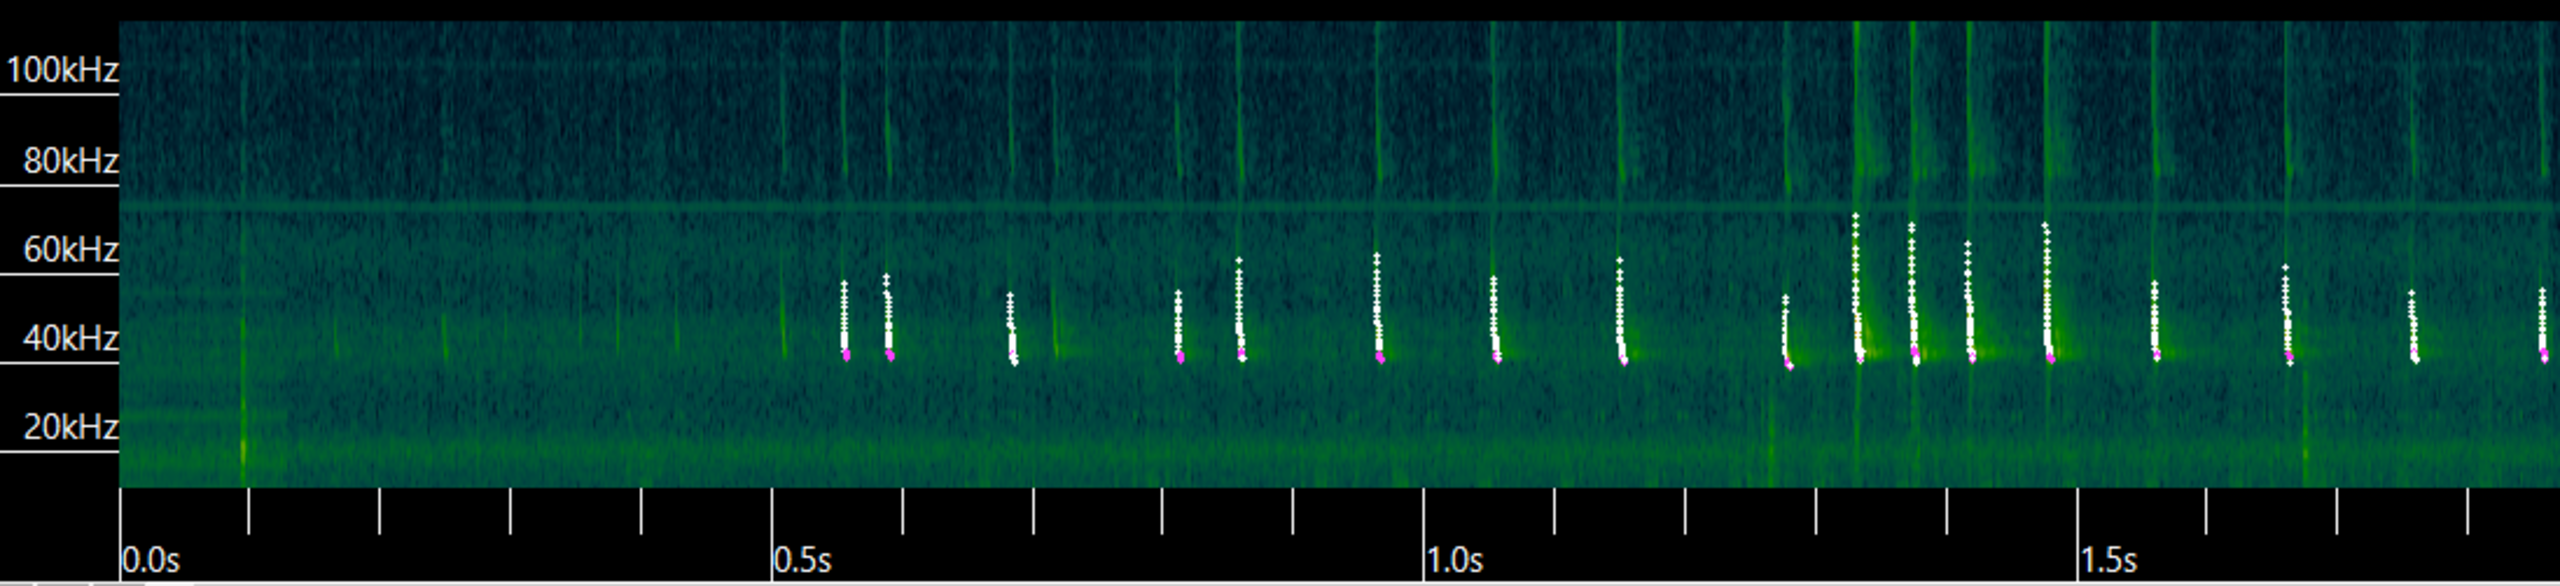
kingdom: Animalia
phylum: Chordata
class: Mammalia
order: Chiroptera
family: Vespertilionidae
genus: Pipistrellus
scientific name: Pipistrellus nathusii
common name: Troldflagermus
